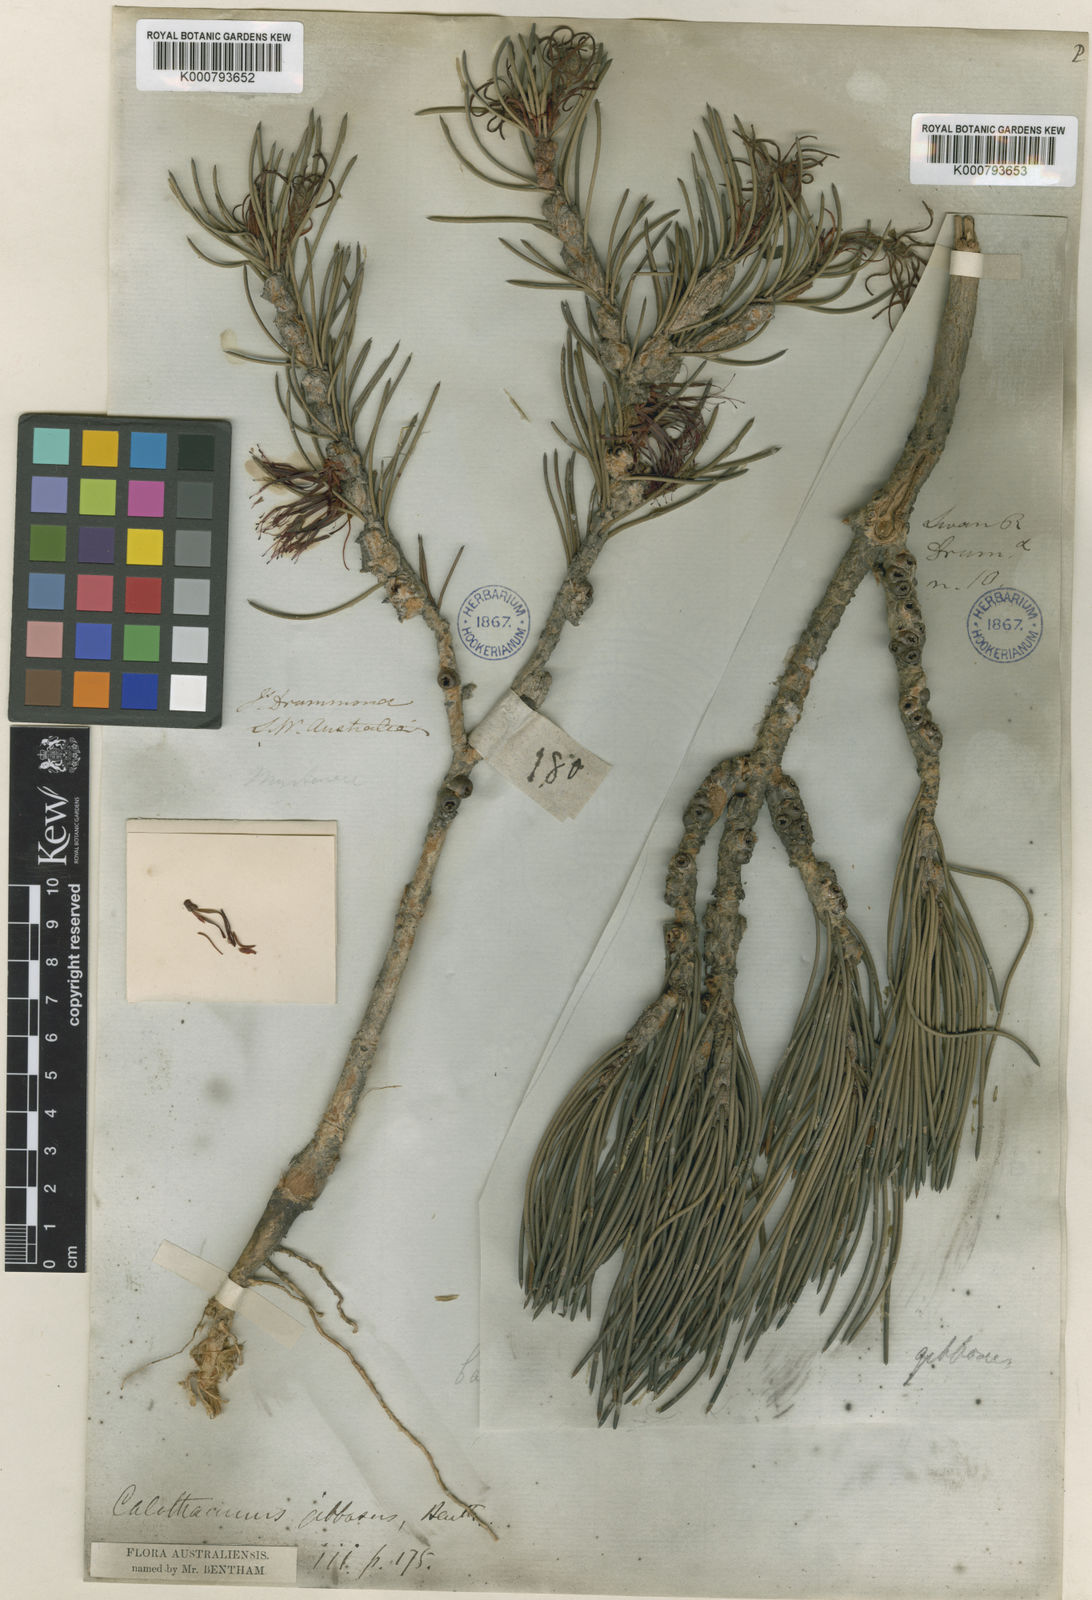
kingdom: Plantae
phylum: Tracheophyta
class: Magnoliopsida
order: Myrtales
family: Myrtaceae
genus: Melaleuca
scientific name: Melaleuca protumida
